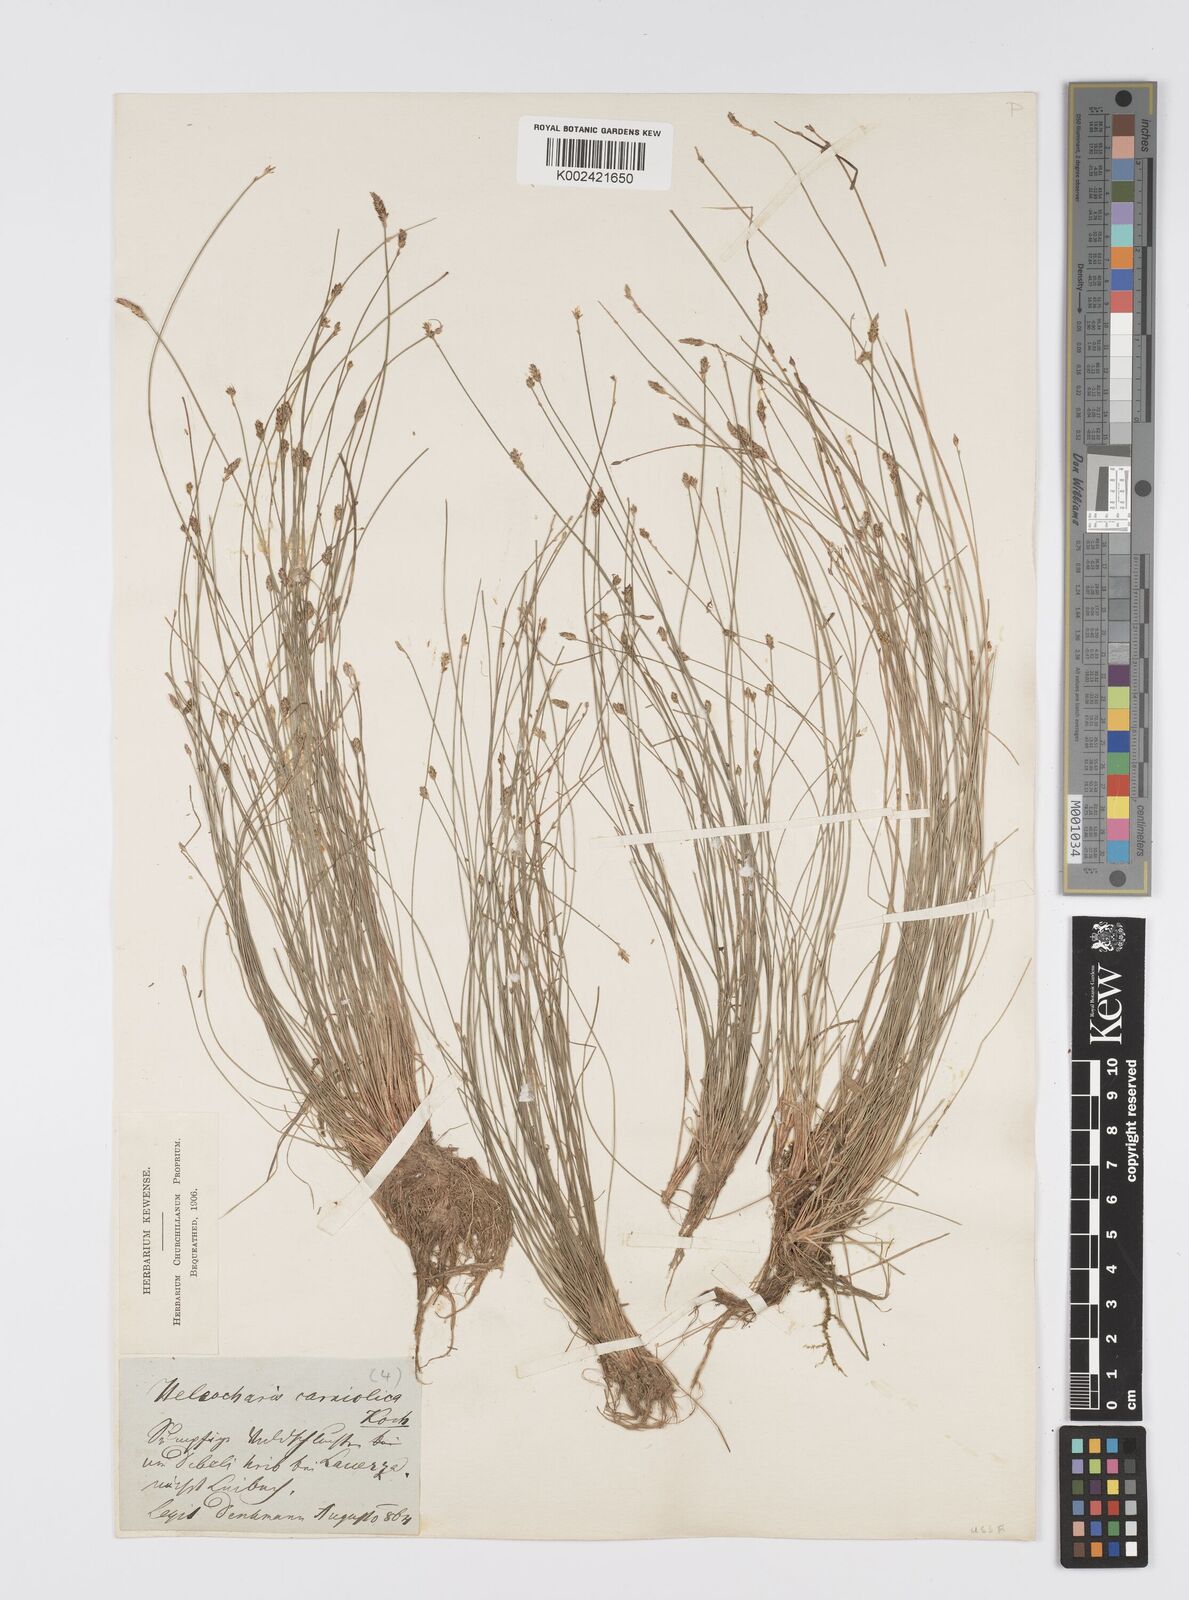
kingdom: Plantae
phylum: Tracheophyta
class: Liliopsida
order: Poales
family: Cyperaceae
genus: Eleocharis
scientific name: Eleocharis carniolica
